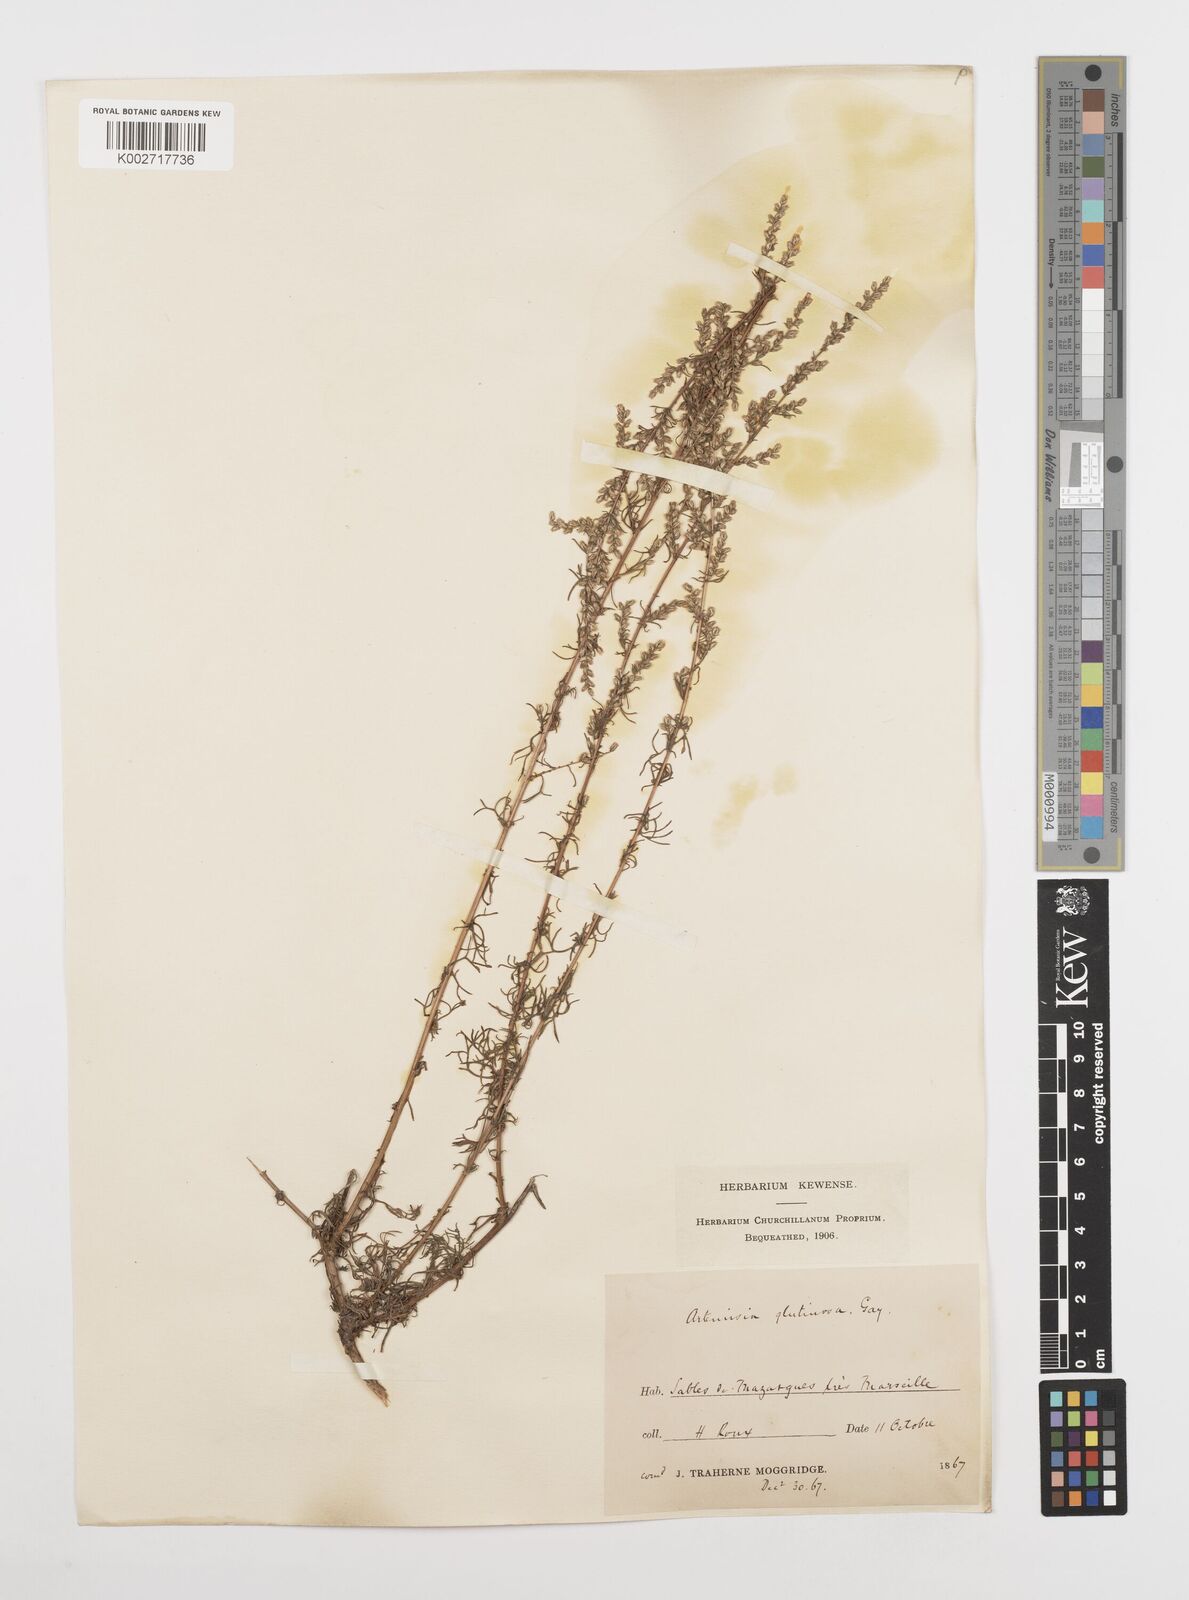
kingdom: Plantae
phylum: Tracheophyta
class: Magnoliopsida
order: Asterales
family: Asteraceae
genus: Artemisia
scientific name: Artemisia campestris
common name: Field wormwood
